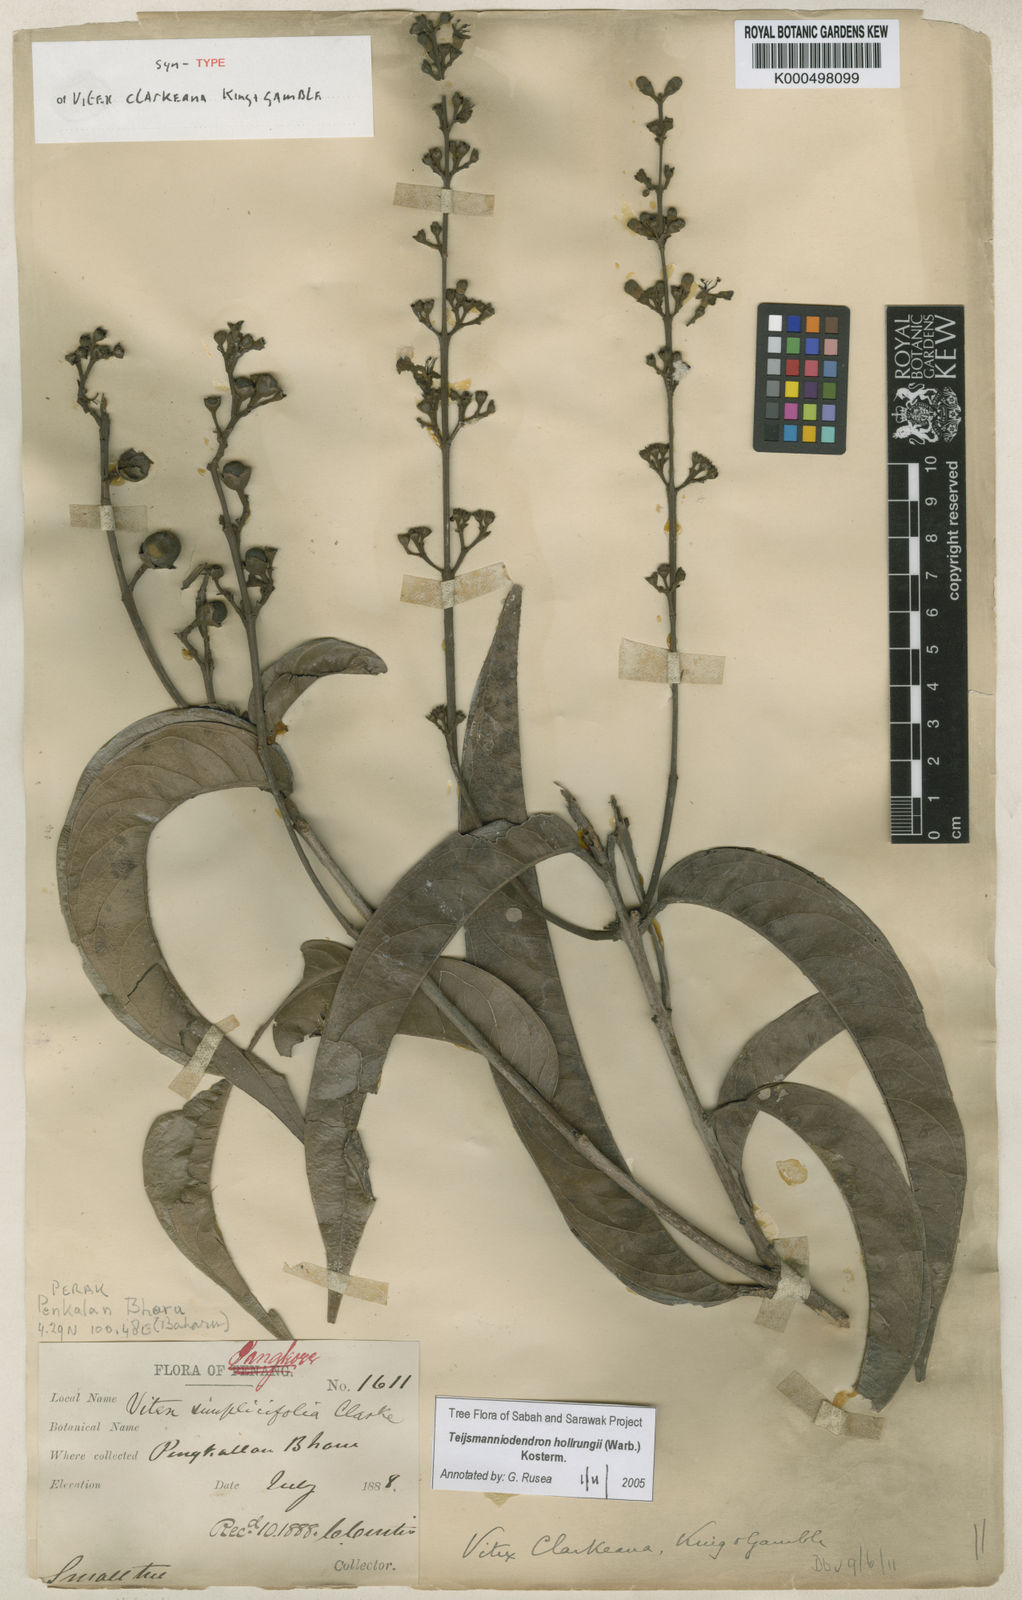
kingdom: Plantae
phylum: Tracheophyta
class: Magnoliopsida
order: Lamiales
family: Lamiaceae
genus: Teijsmanniodendron
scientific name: Teijsmanniodendron hollrungii
